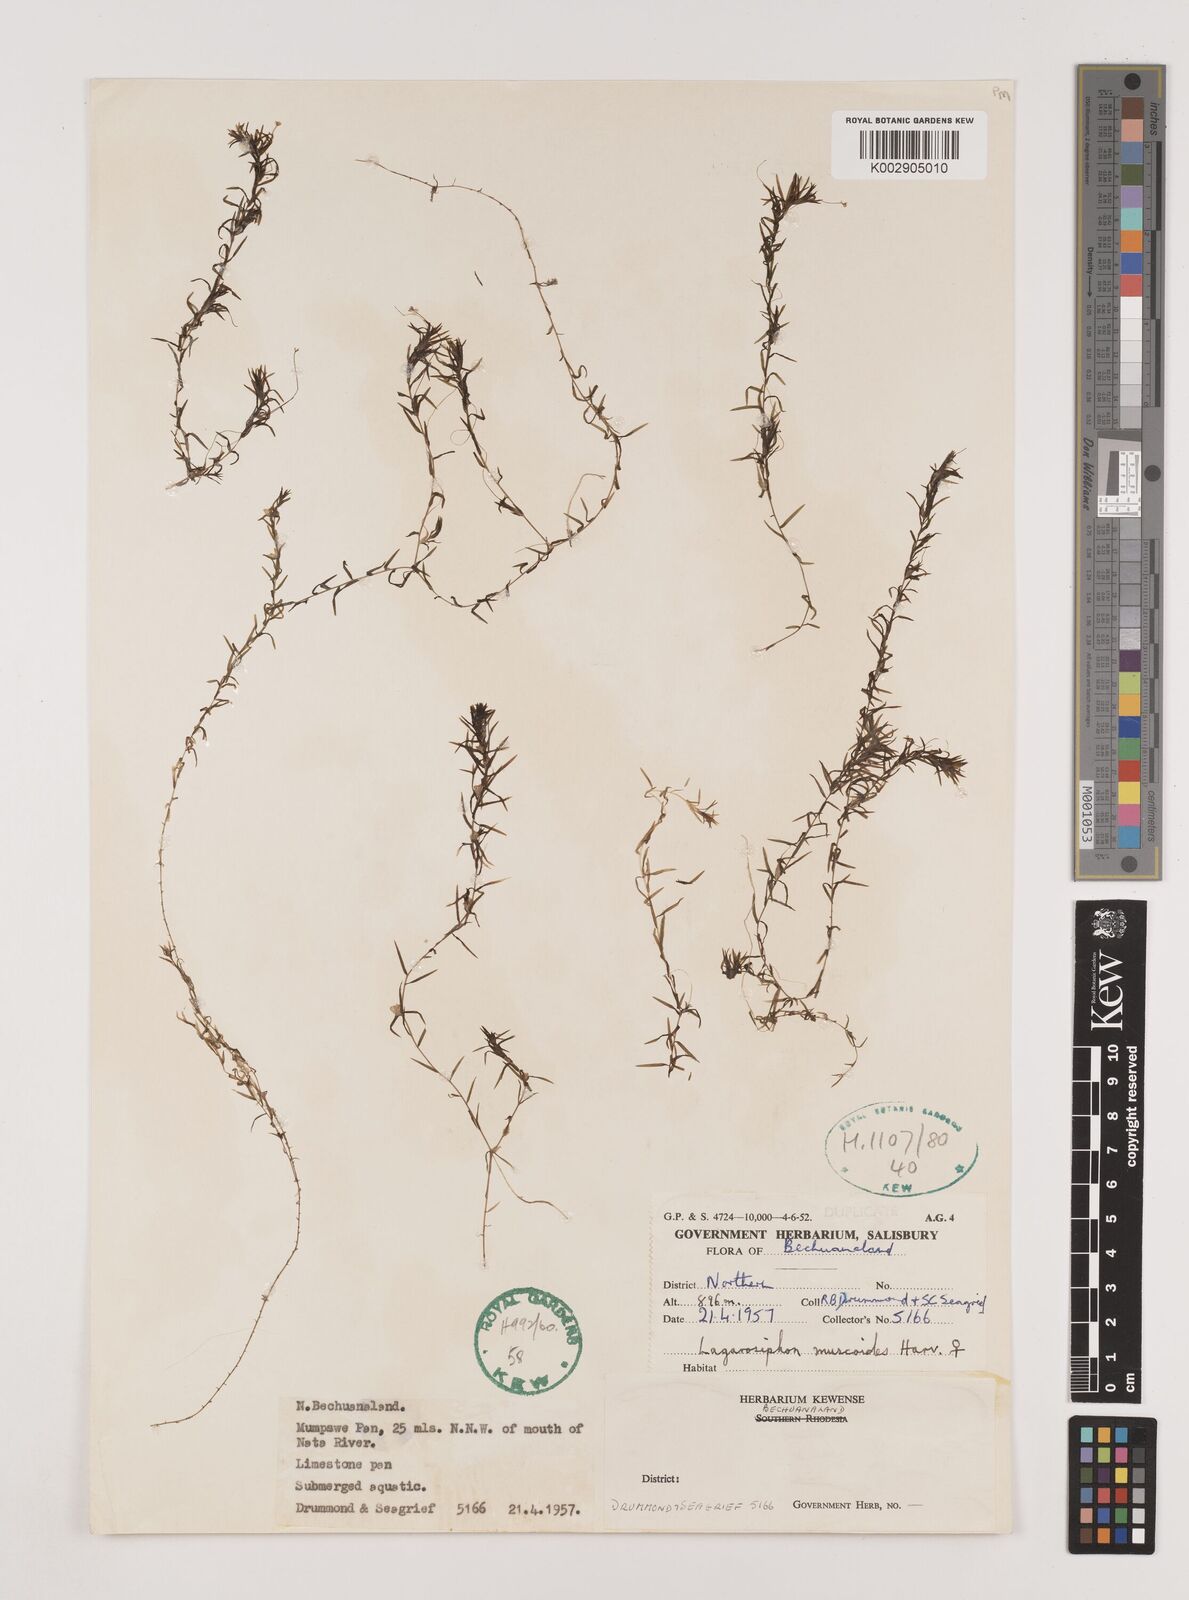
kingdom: Plantae
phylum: Tracheophyta
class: Liliopsida
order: Alismatales
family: Hydrocharitaceae
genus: Lagarosiphon
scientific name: Lagarosiphon muscoides
